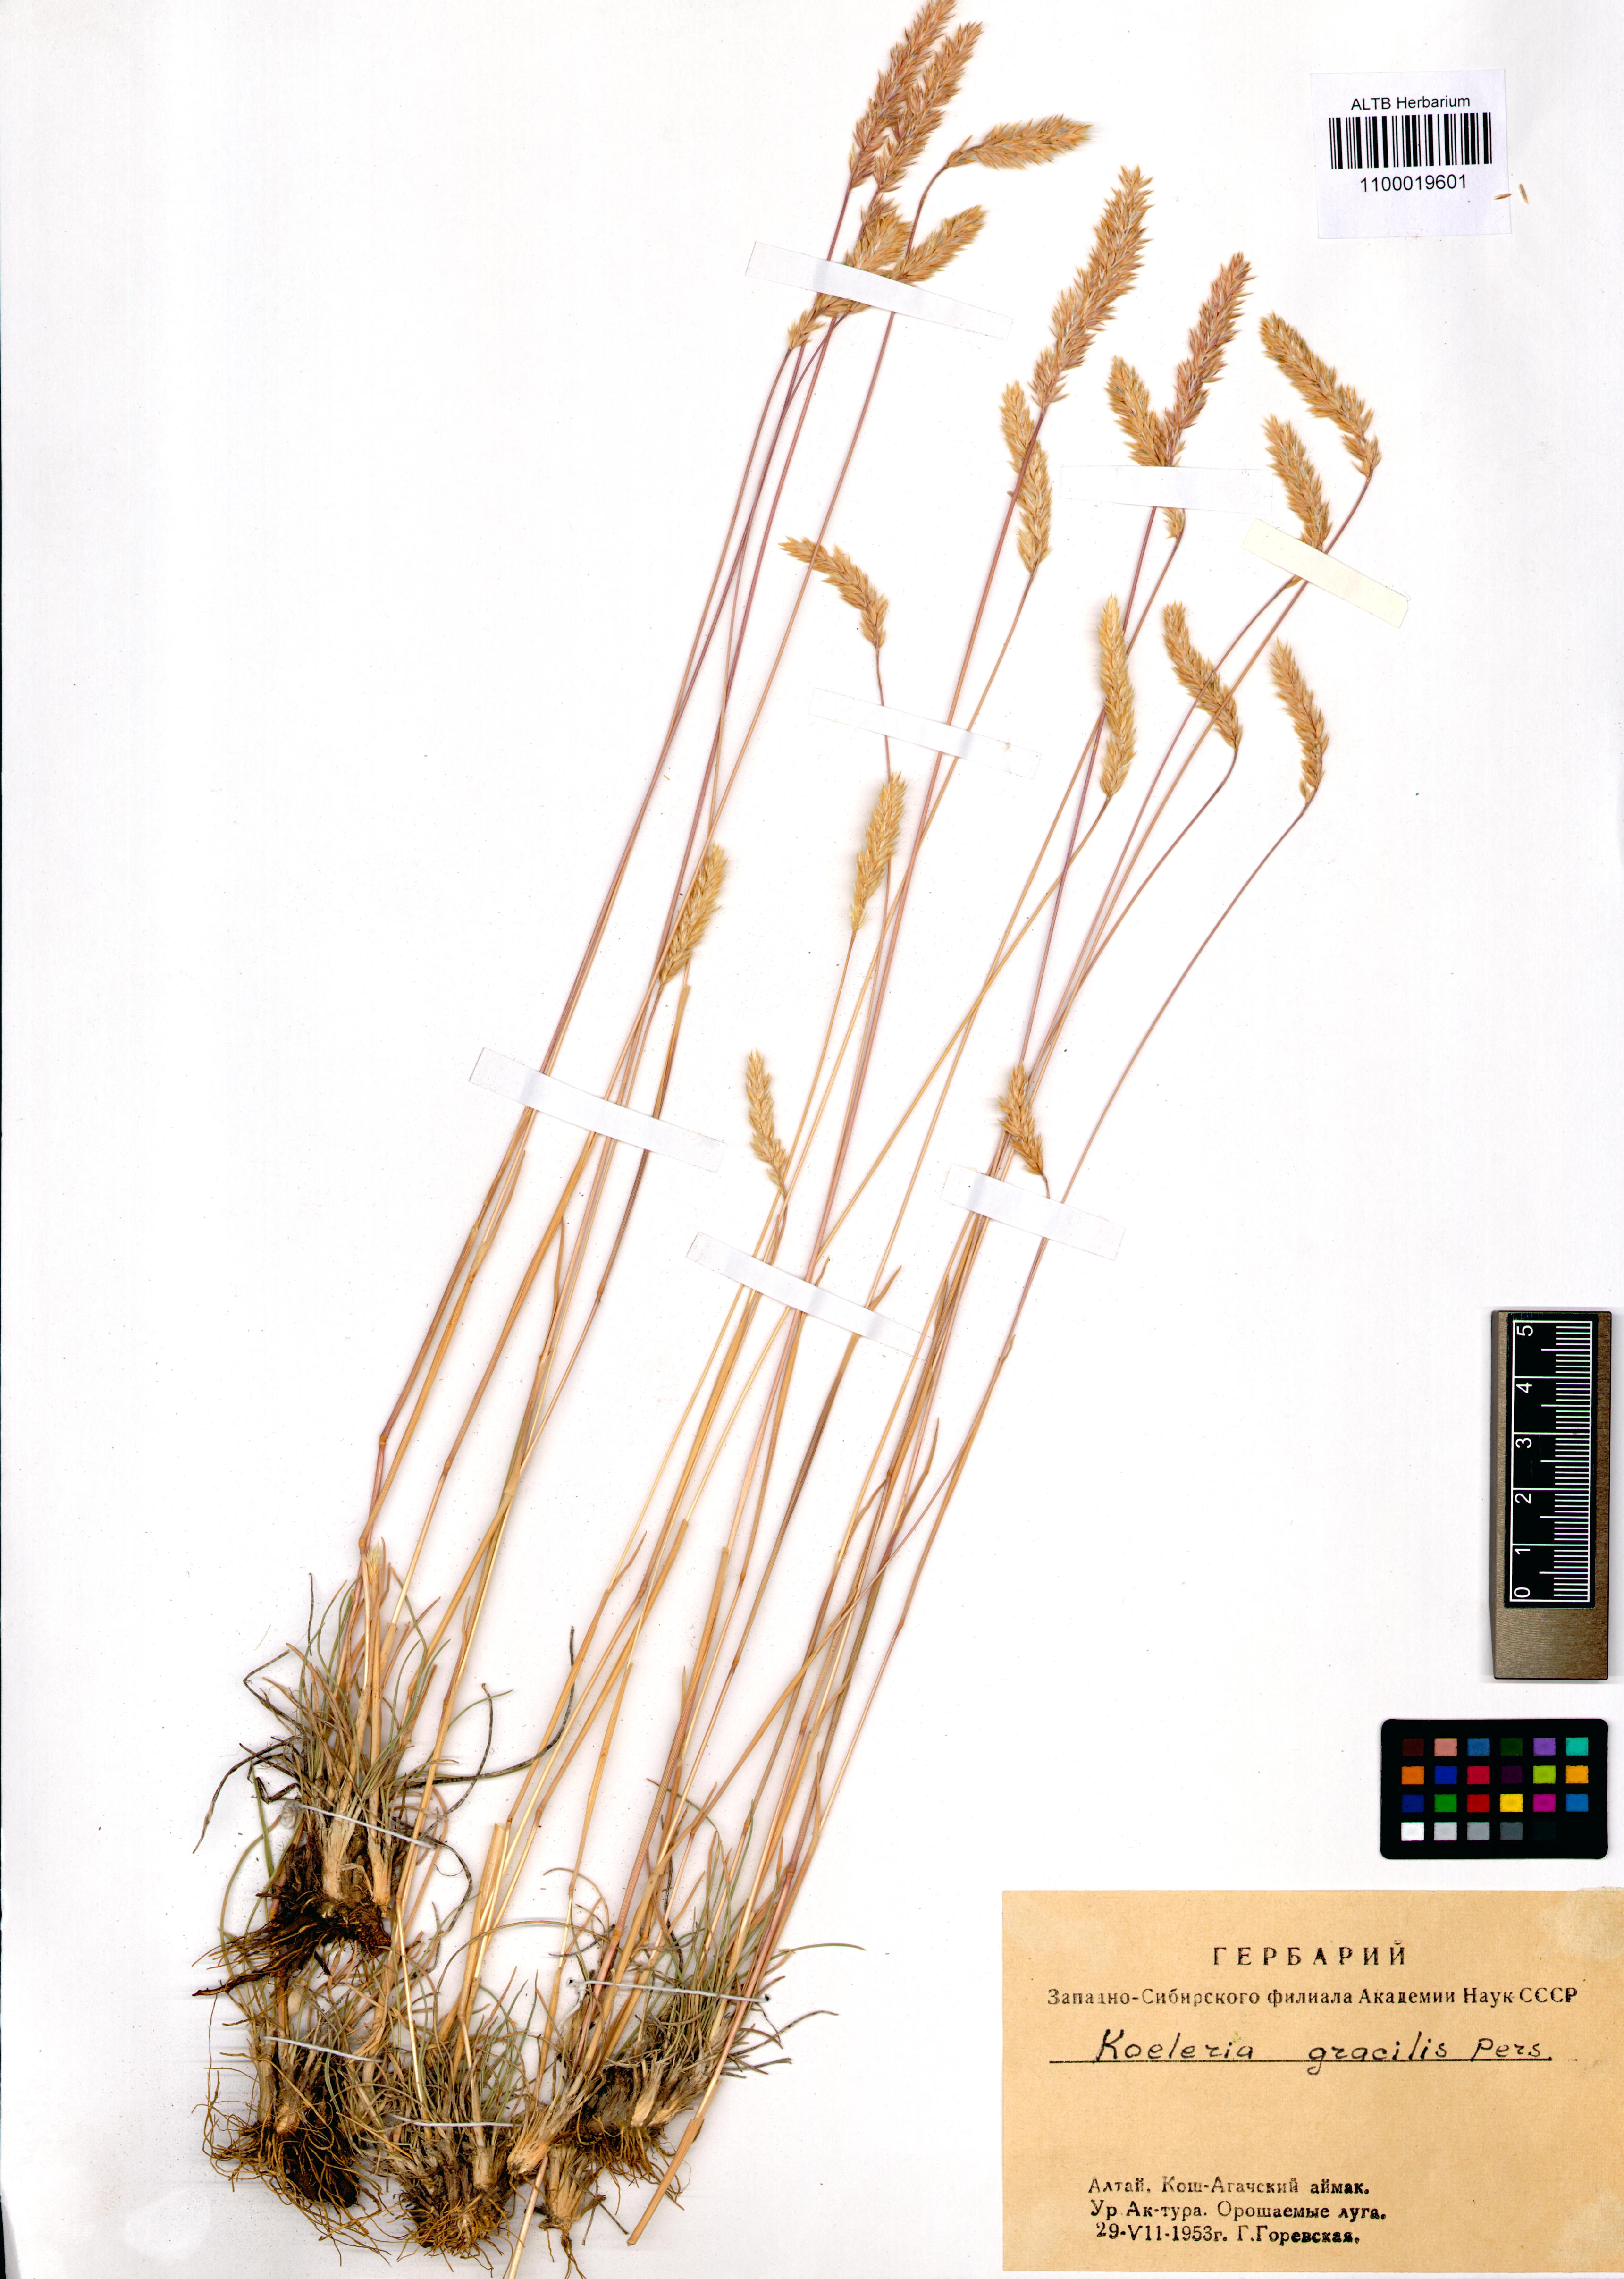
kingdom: Plantae
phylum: Tracheophyta
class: Liliopsida
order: Poales
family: Poaceae
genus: Koeleria
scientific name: Koeleria macrantha
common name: Crested hair-grass
